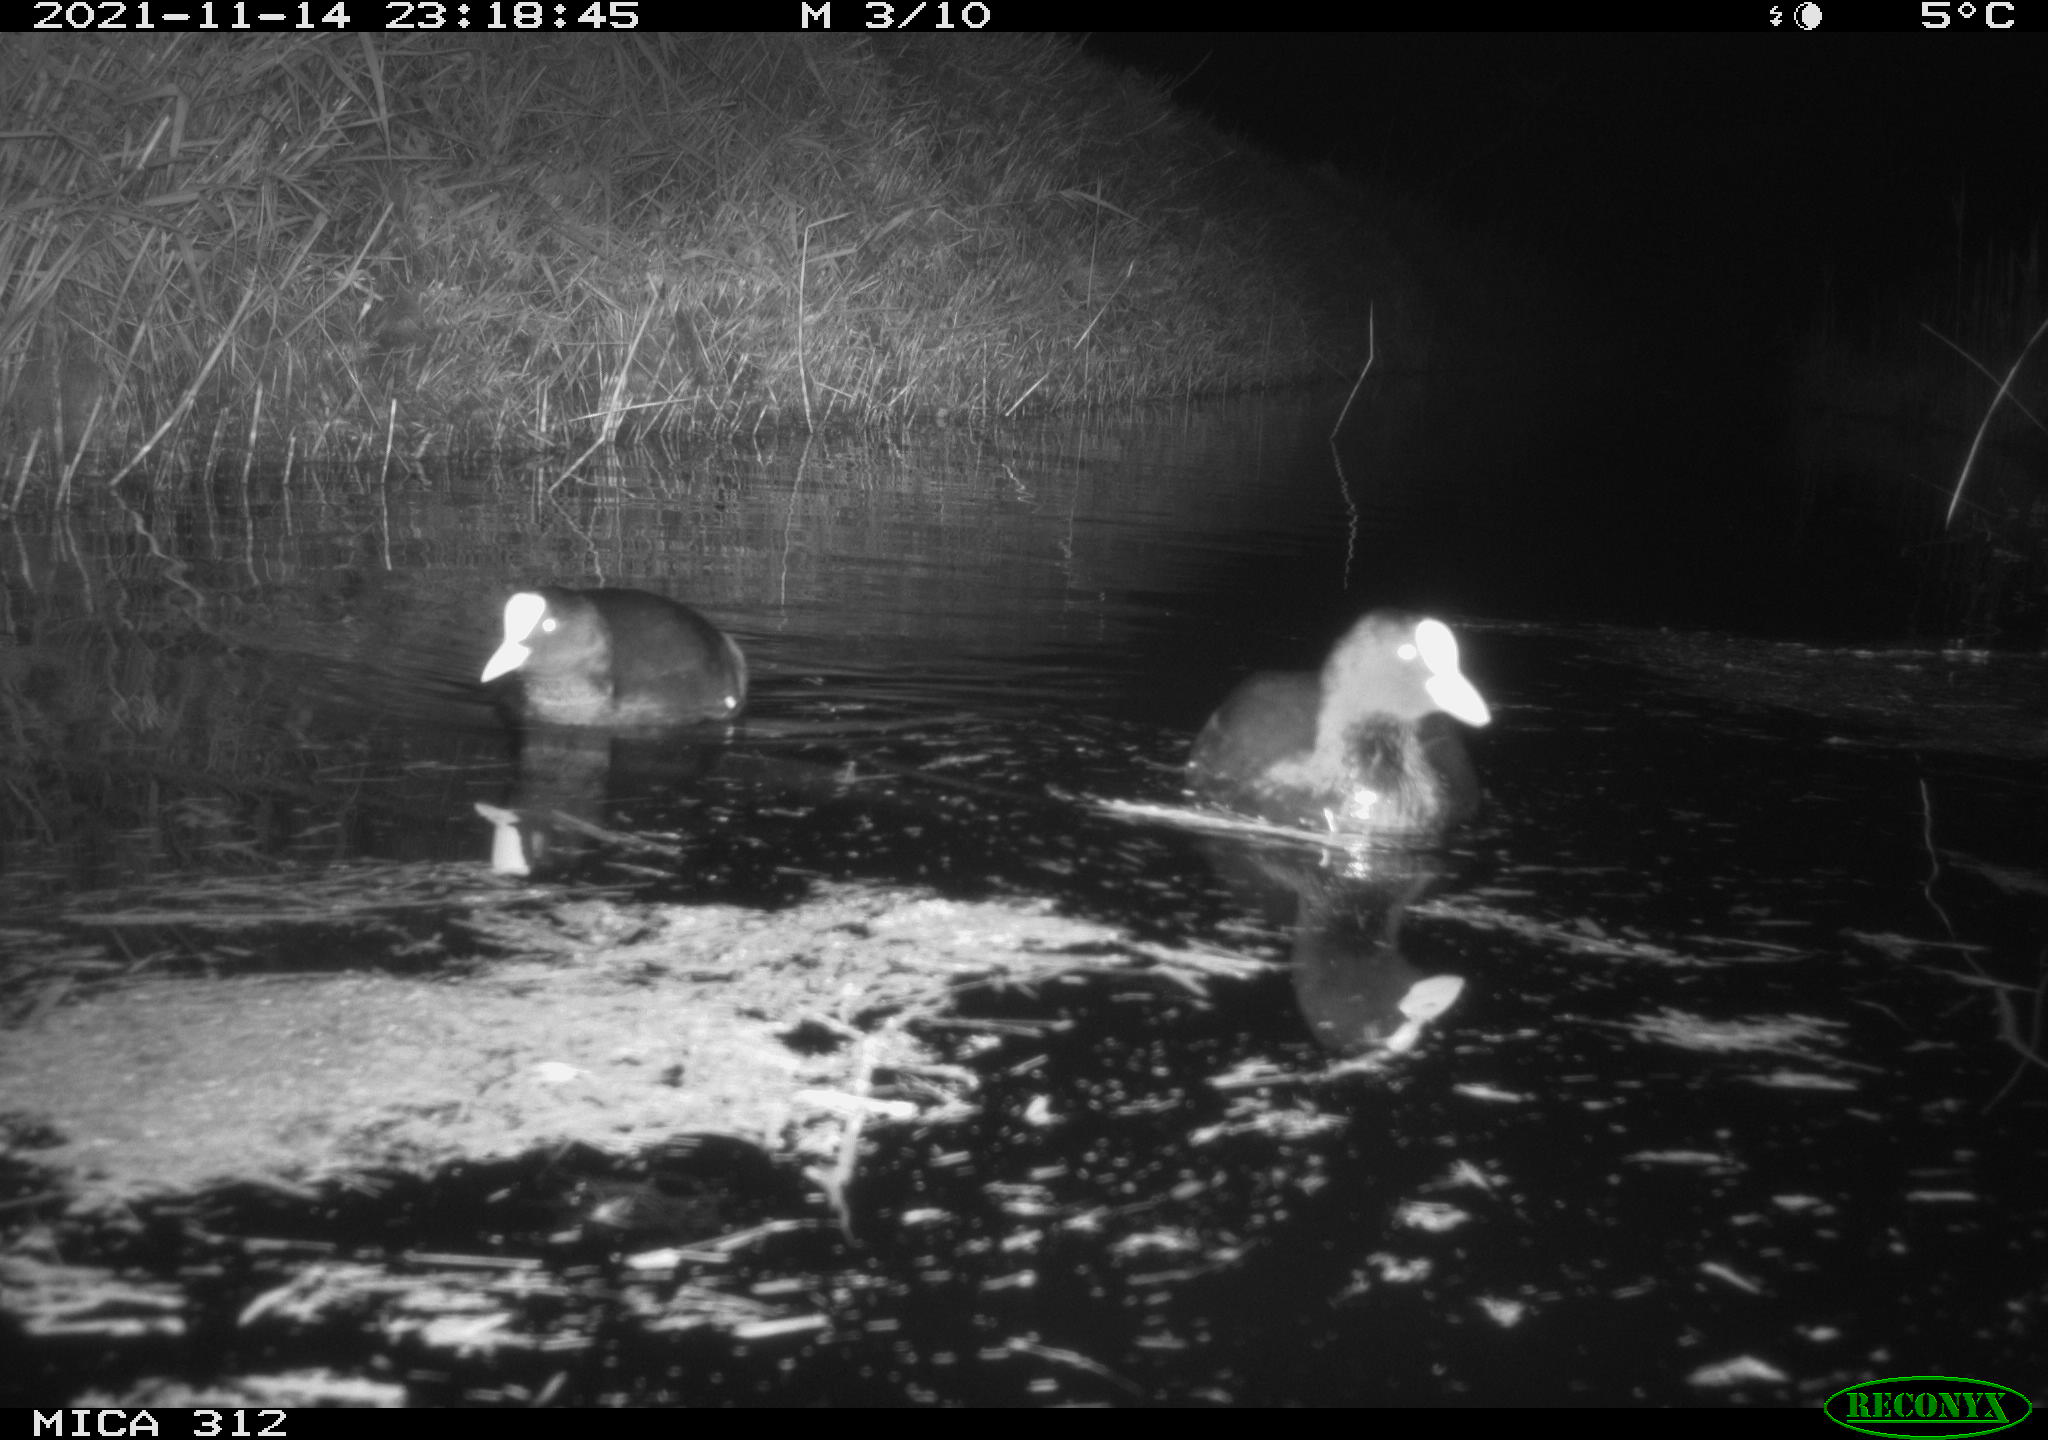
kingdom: Animalia
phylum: Chordata
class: Aves
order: Gruiformes
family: Rallidae
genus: Gallinula
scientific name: Gallinula chloropus
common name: Common moorhen
